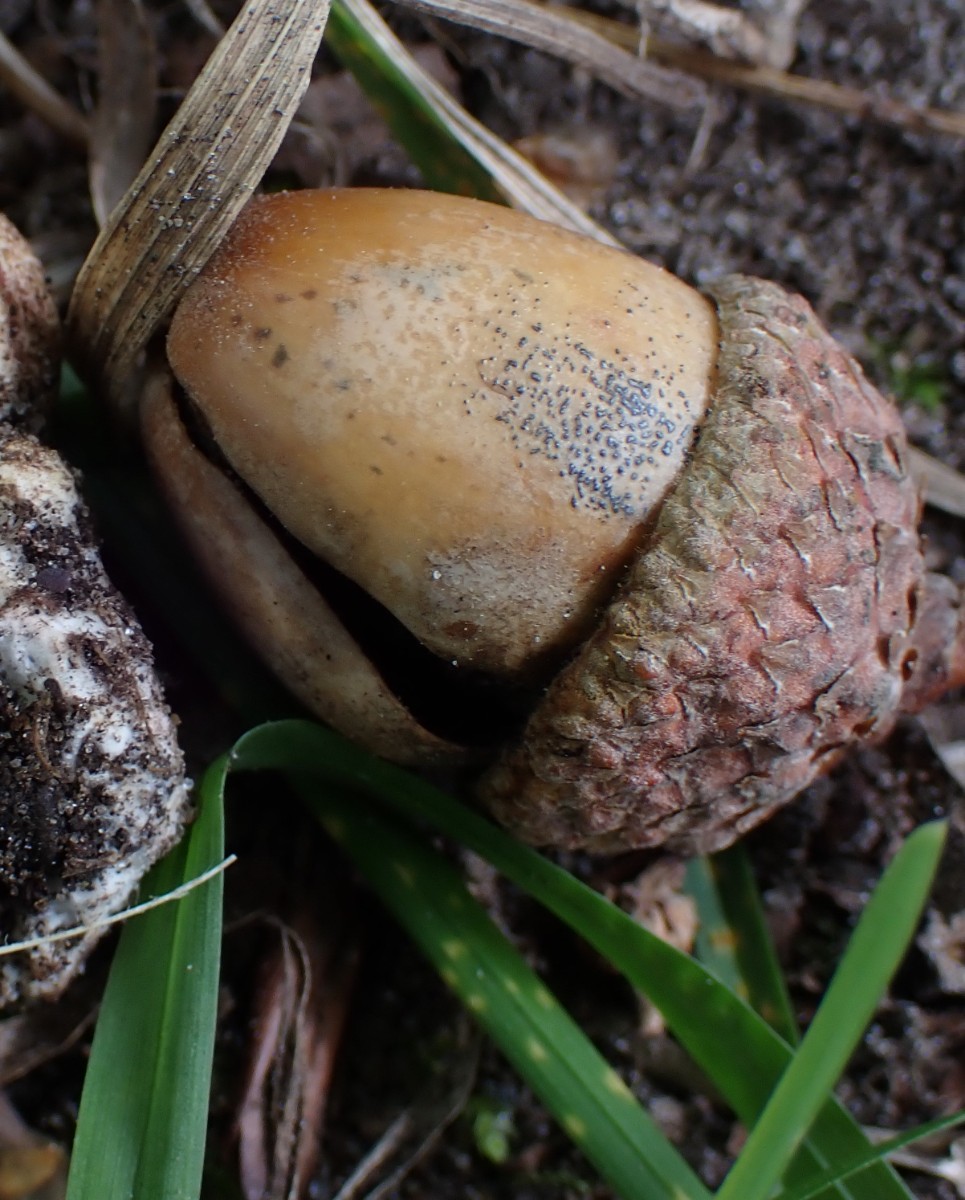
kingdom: Fungi
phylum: Ascomycota
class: Sordariomycetes
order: Amphisphaeriales
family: Pestalotiopsidaceae
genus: Pestalotiopsis
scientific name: Pestalotiopsis
